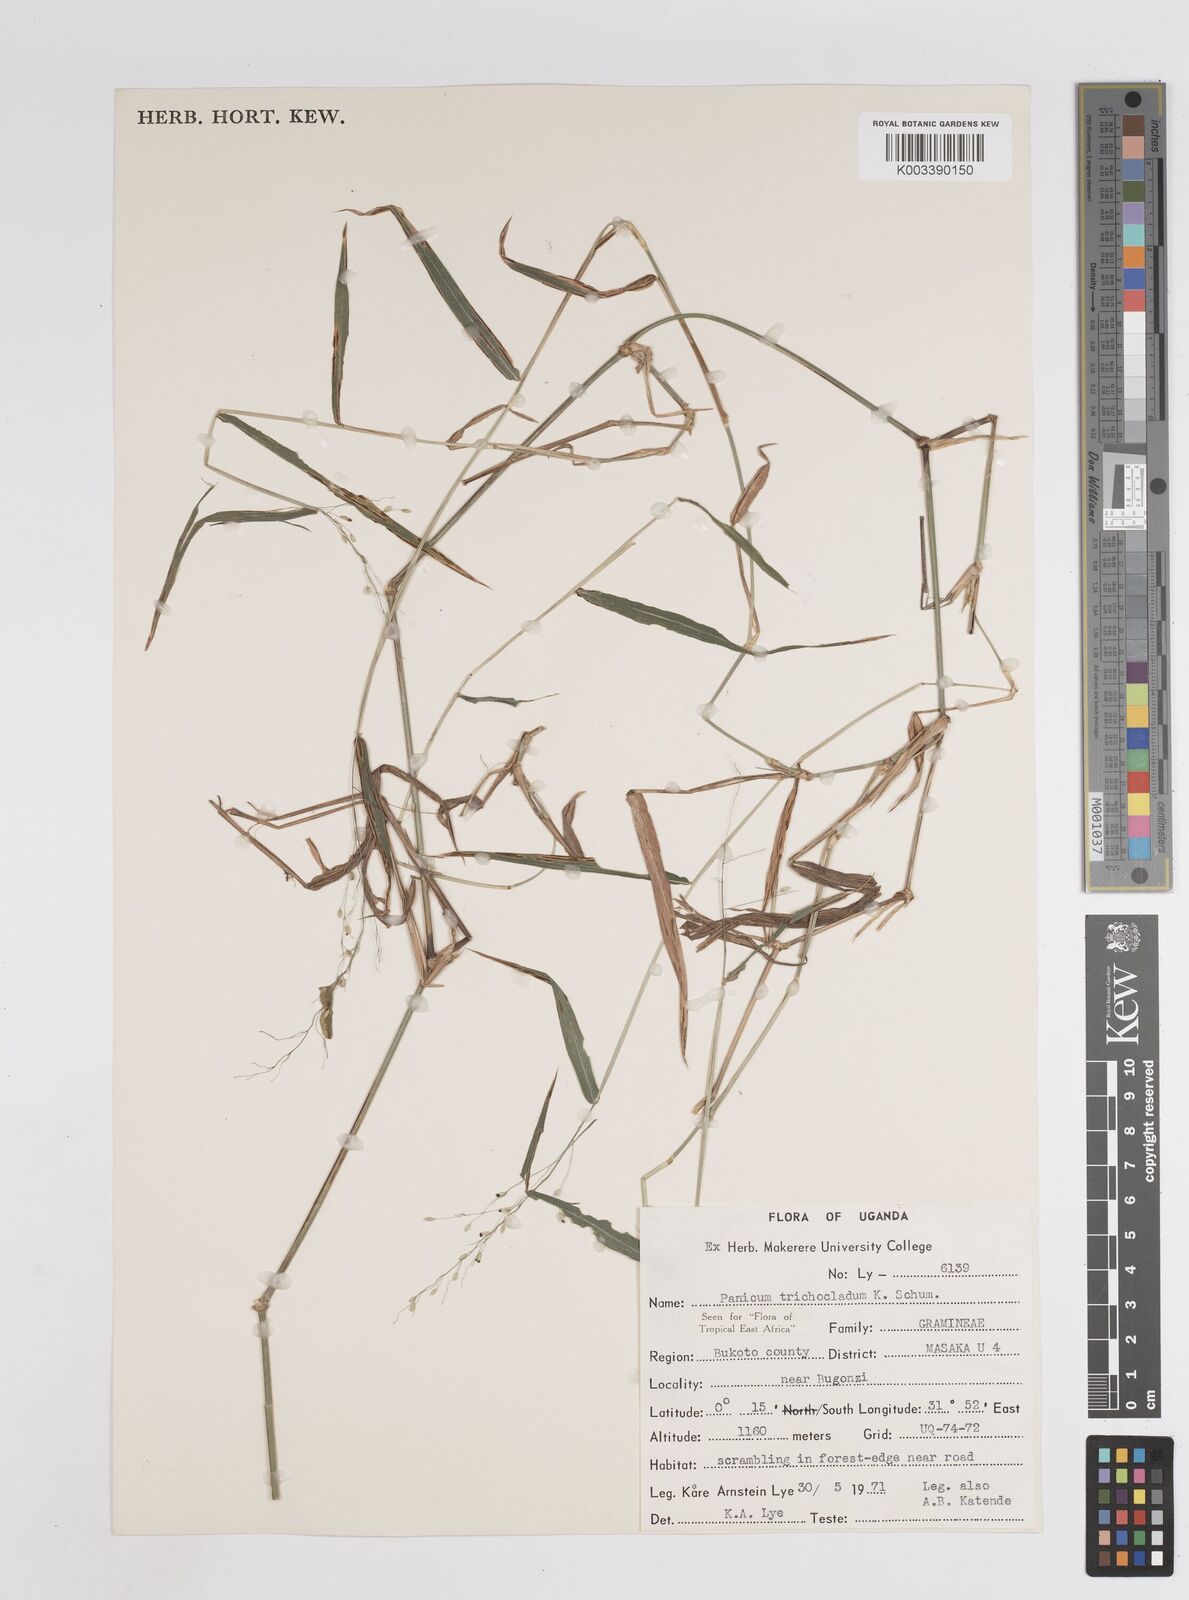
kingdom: Plantae
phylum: Tracheophyta
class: Liliopsida
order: Poales
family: Poaceae
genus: Megathyrsus
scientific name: Megathyrsus maximus
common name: Guineagrass
